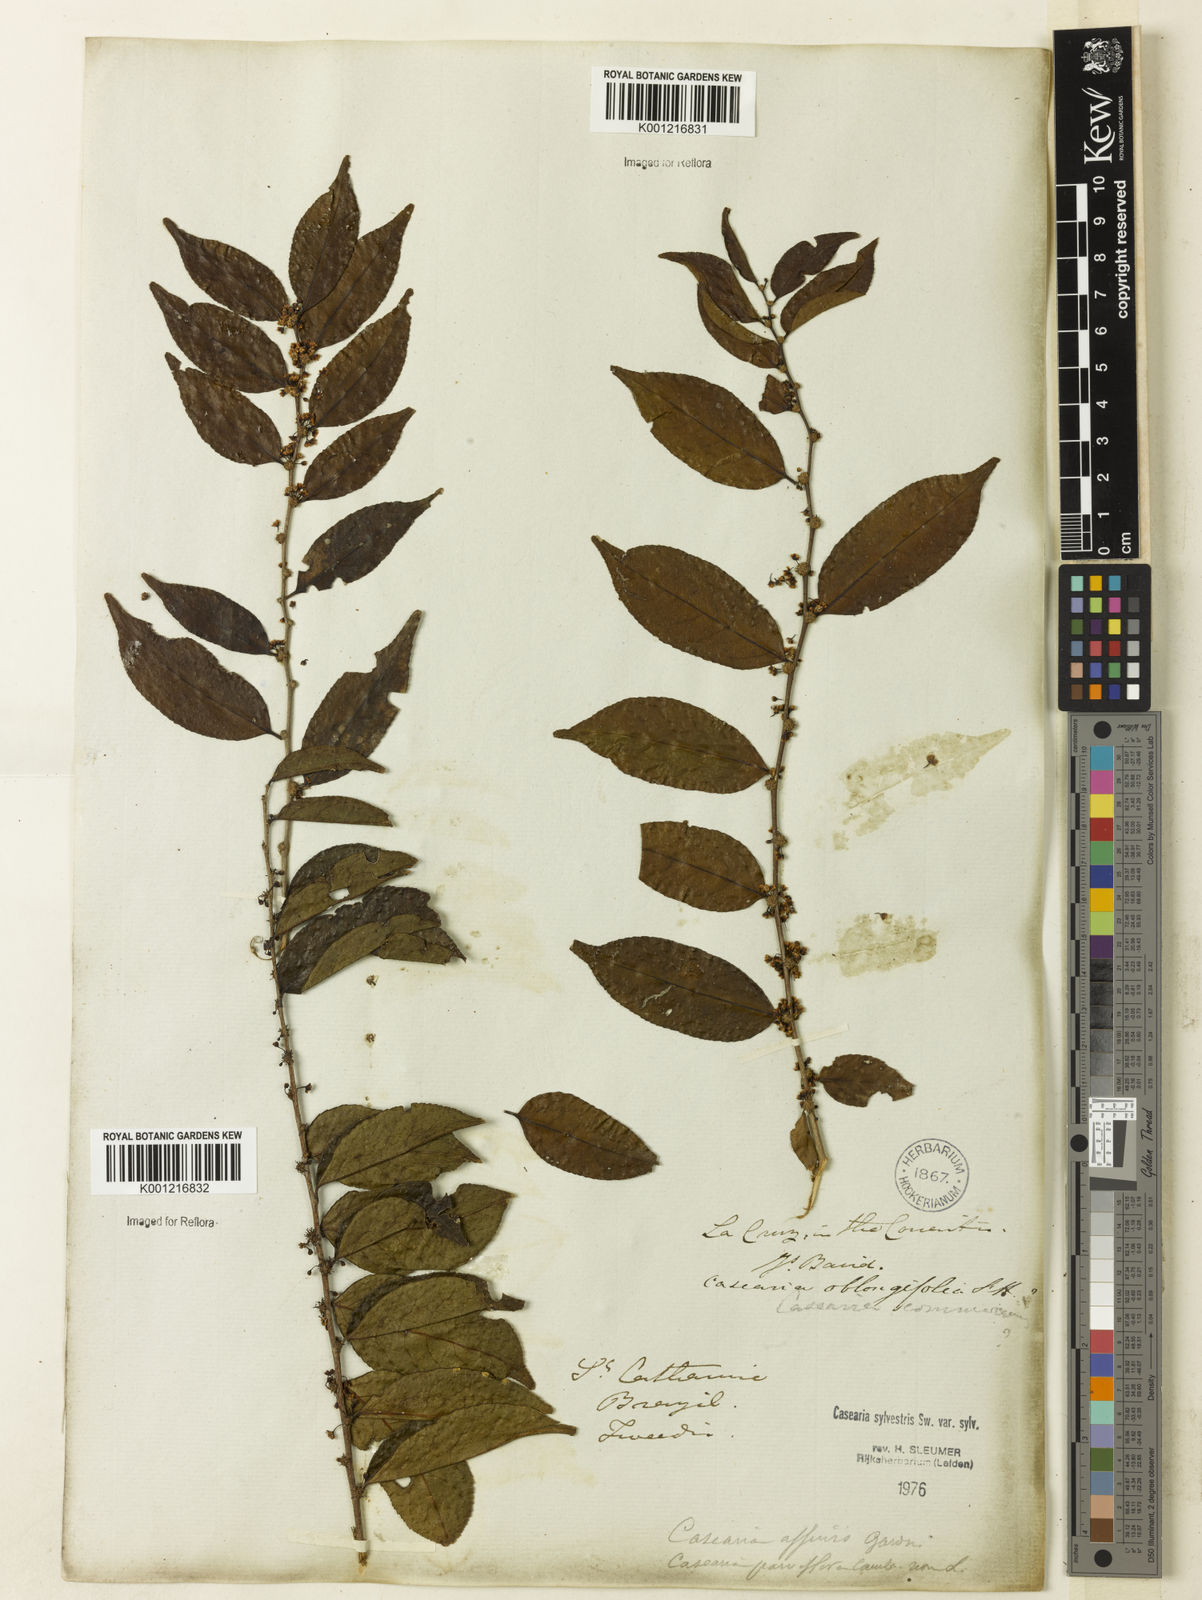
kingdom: Plantae
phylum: Tracheophyta
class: Magnoliopsida
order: Malpighiales
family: Salicaceae
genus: Casearia
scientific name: Casearia sylvestris
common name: Wild sage
